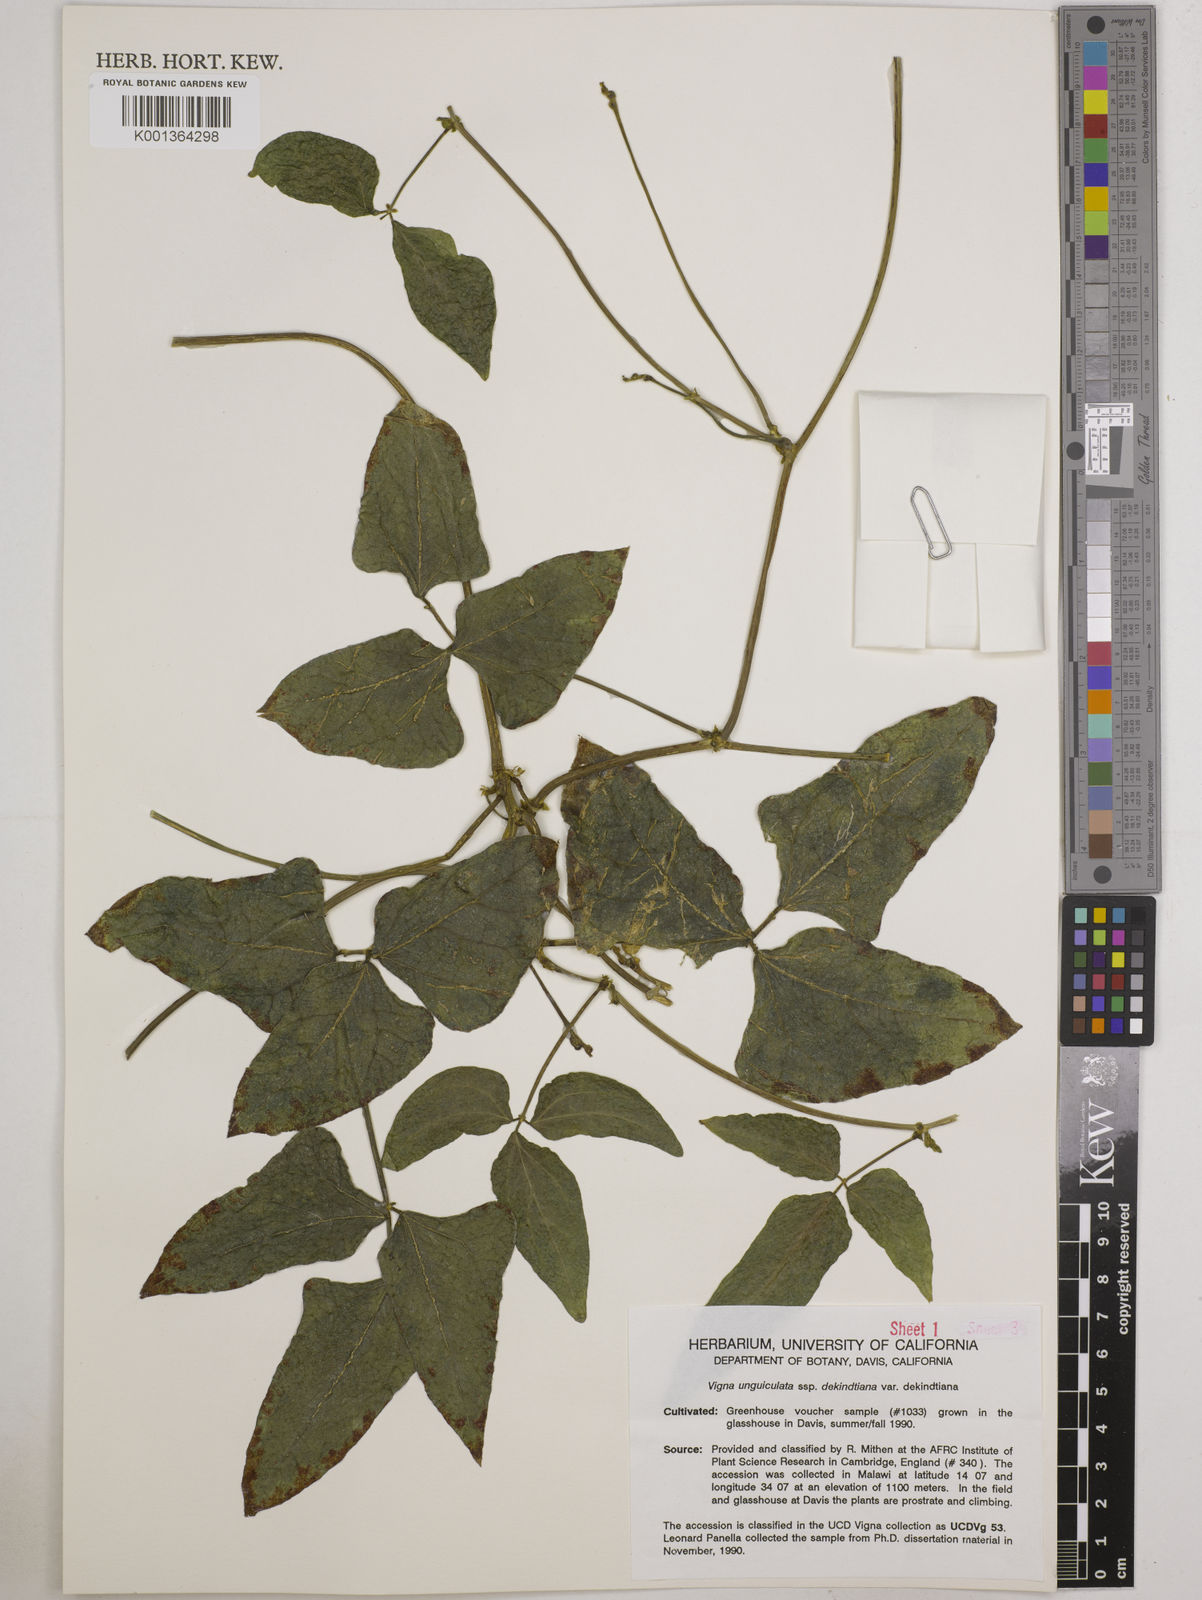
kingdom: Plantae
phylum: Tracheophyta
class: Magnoliopsida
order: Fabales
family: Fabaceae
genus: Vigna
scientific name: Vigna
